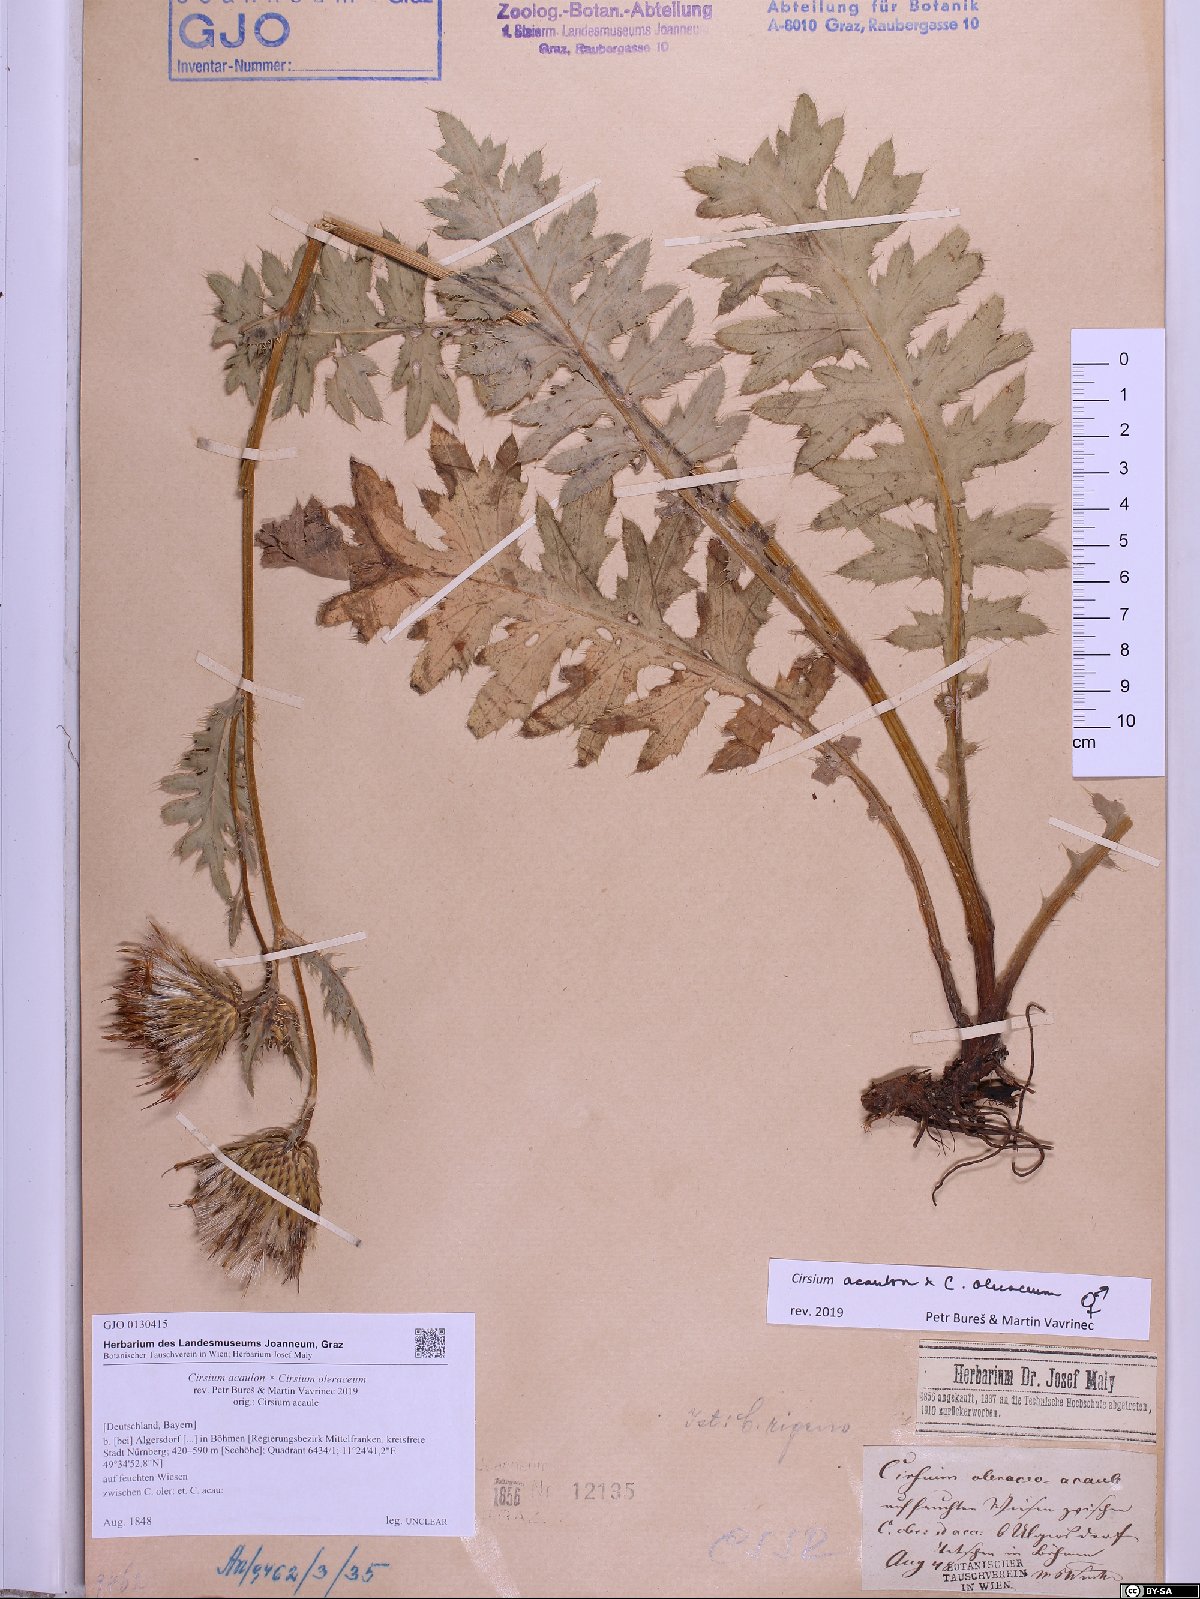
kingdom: Plantae
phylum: Tracheophyta
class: Magnoliopsida
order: Asterales
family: Asteraceae
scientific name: Asteraceae
